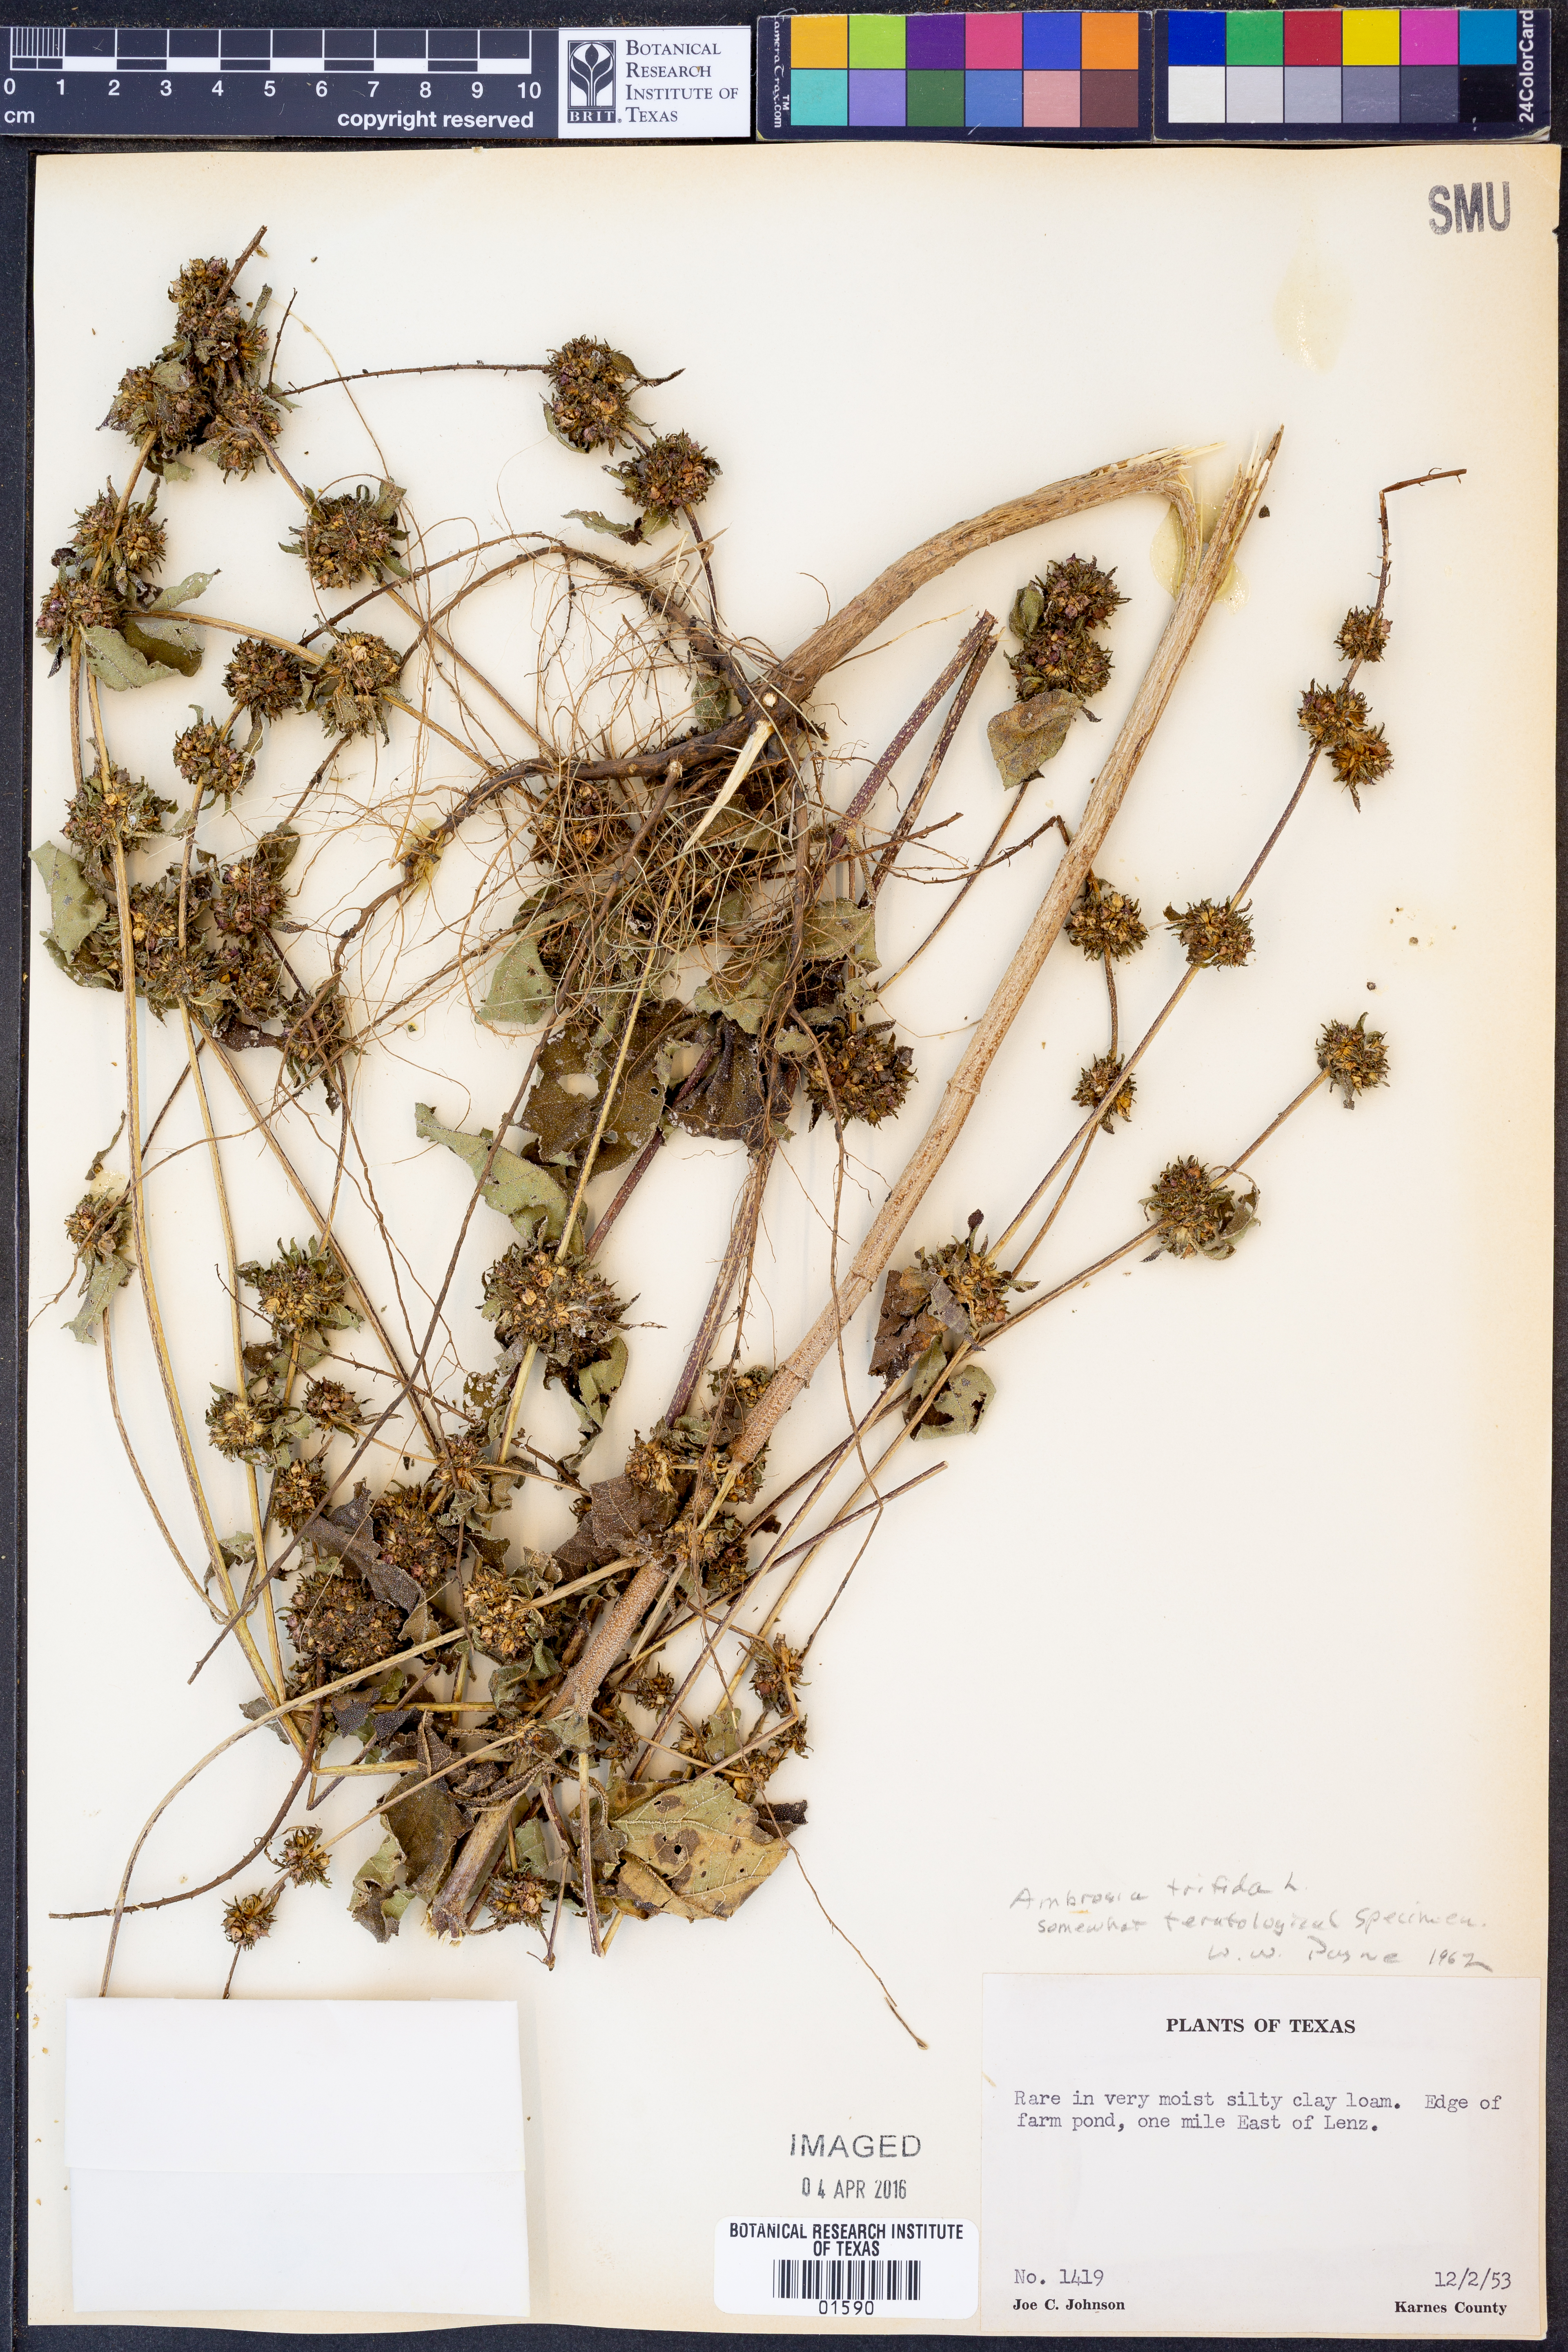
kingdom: Plantae
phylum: Tracheophyta
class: Magnoliopsida
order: Asterales
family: Asteraceae
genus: Ambrosia
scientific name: Ambrosia trifida
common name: Giant ragweed
